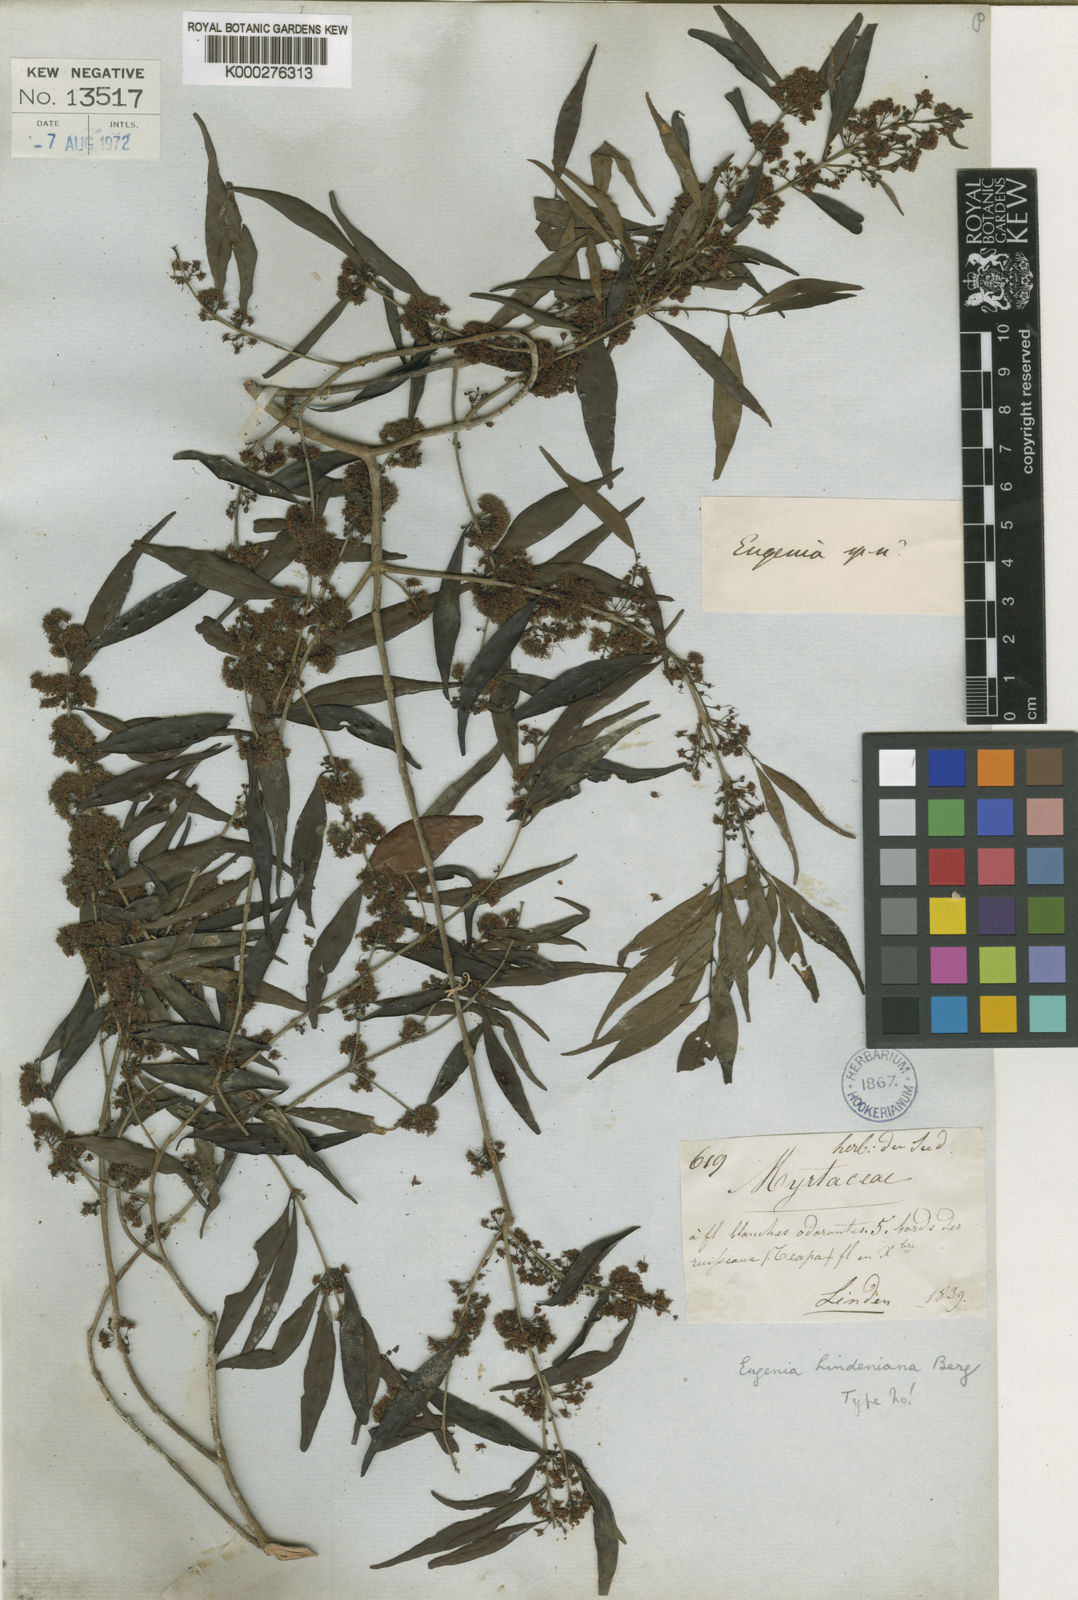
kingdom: Plantae
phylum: Tracheophyta
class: Magnoliopsida
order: Myrtales
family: Myrtaceae
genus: Eugenia
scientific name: Eugenia capuli
